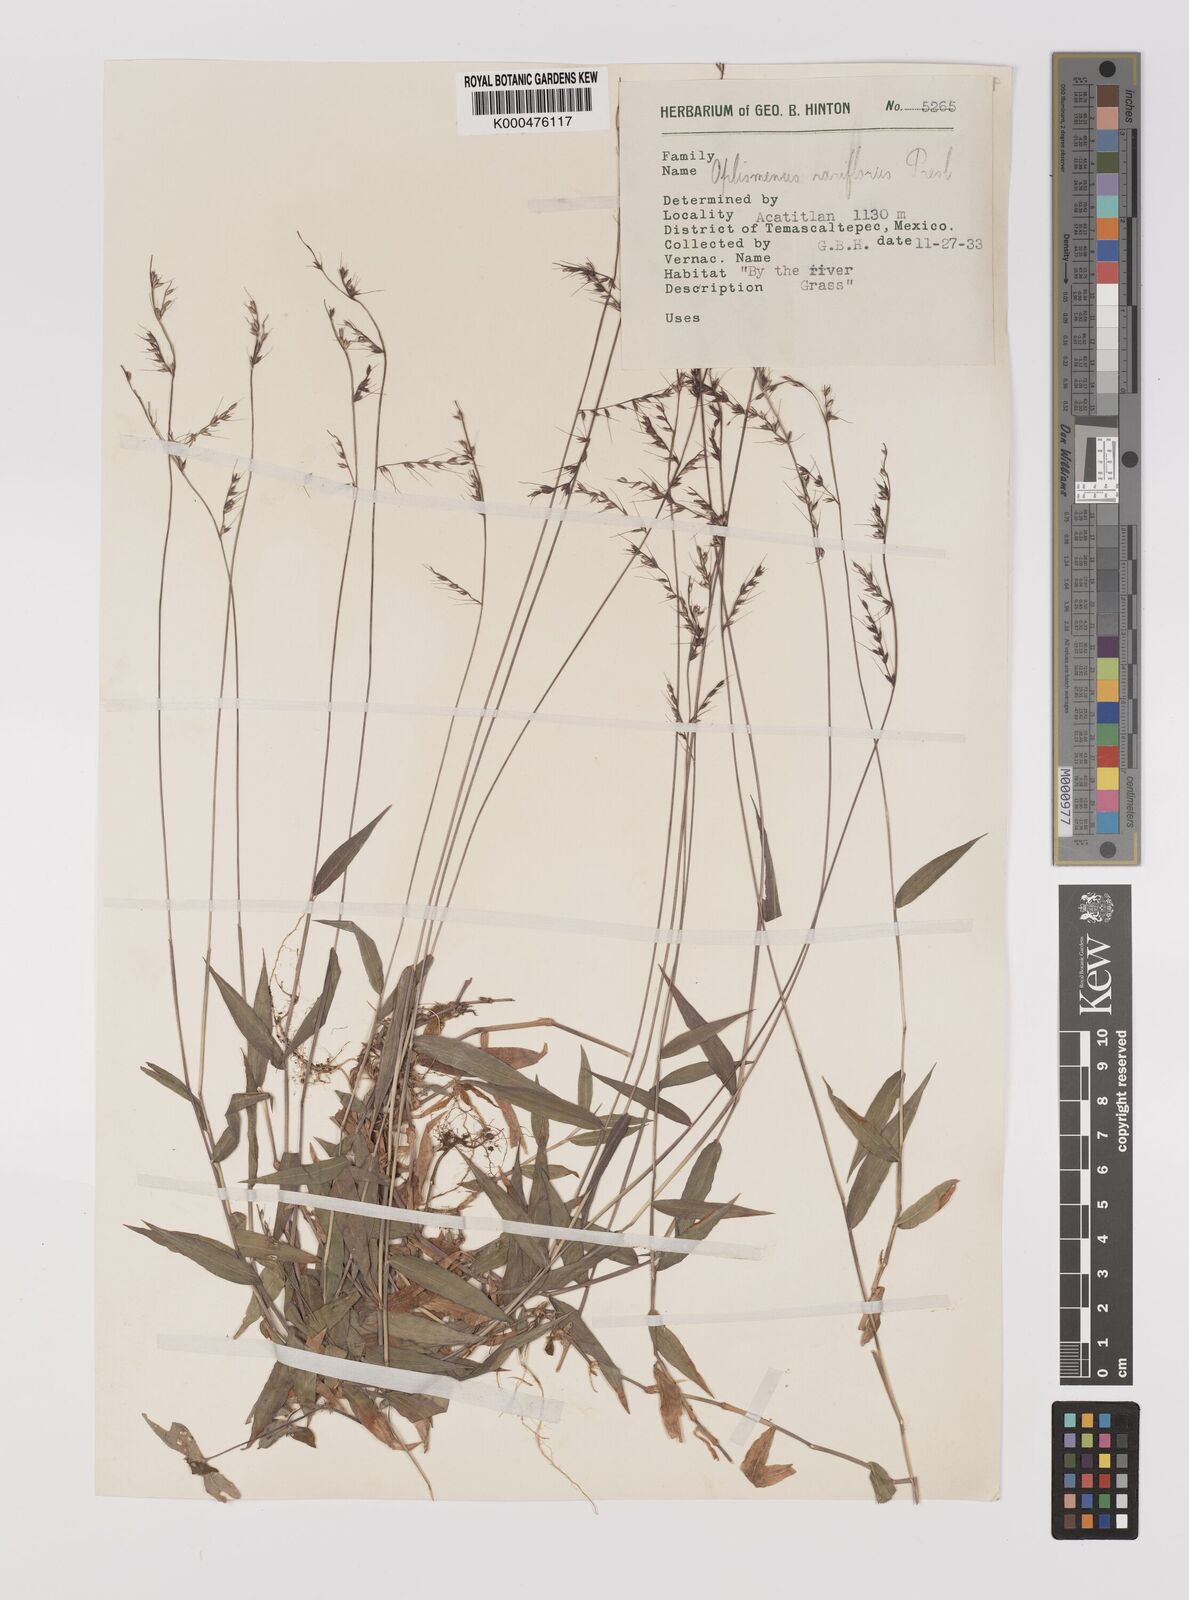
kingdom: Plantae
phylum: Tracheophyta
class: Liliopsida
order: Poales
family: Poaceae
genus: Oplismenus
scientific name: Oplismenus compositus
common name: Running mountain grass
